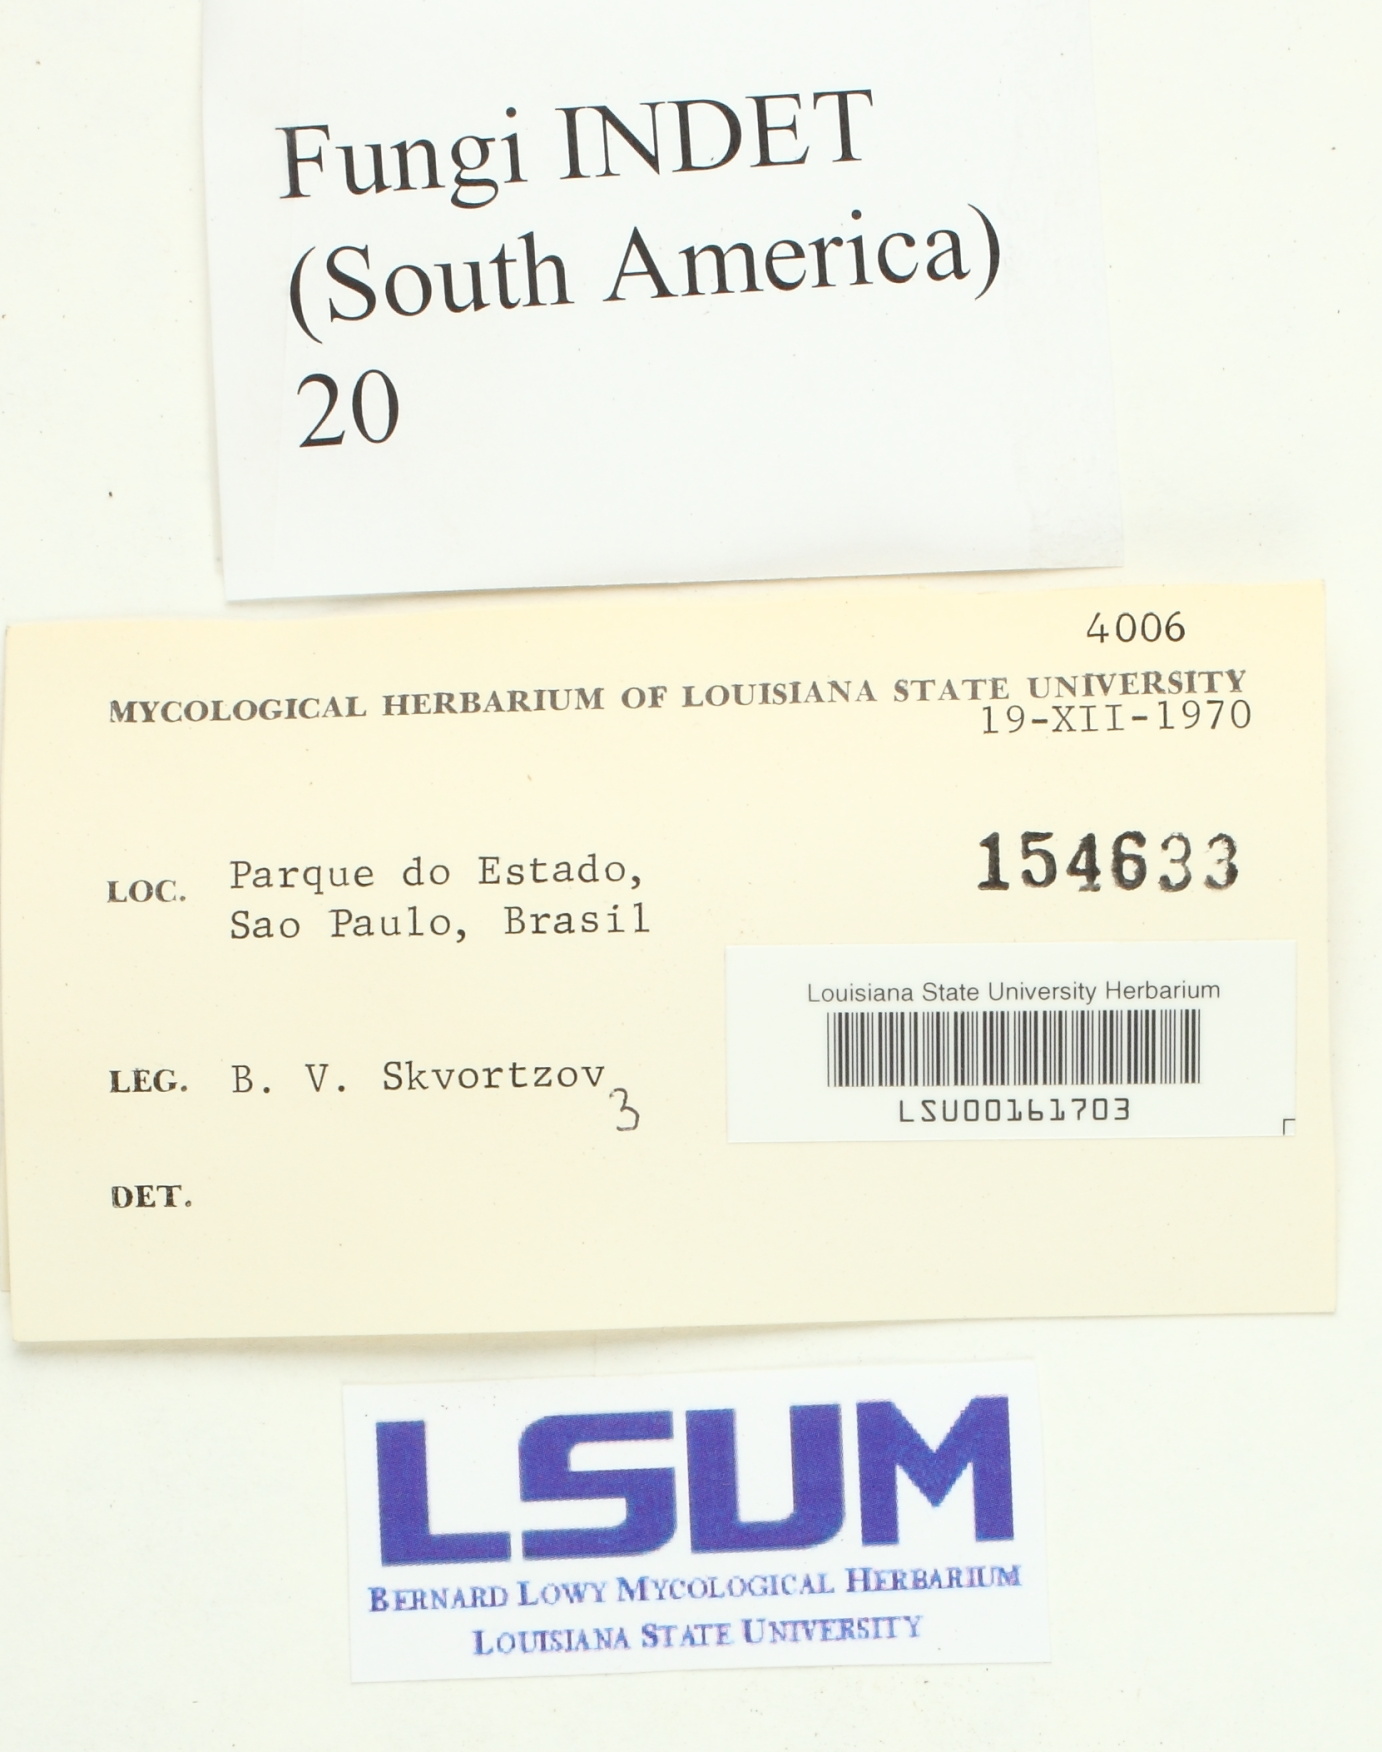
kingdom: Fungi
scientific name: Fungi
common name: Fungi
